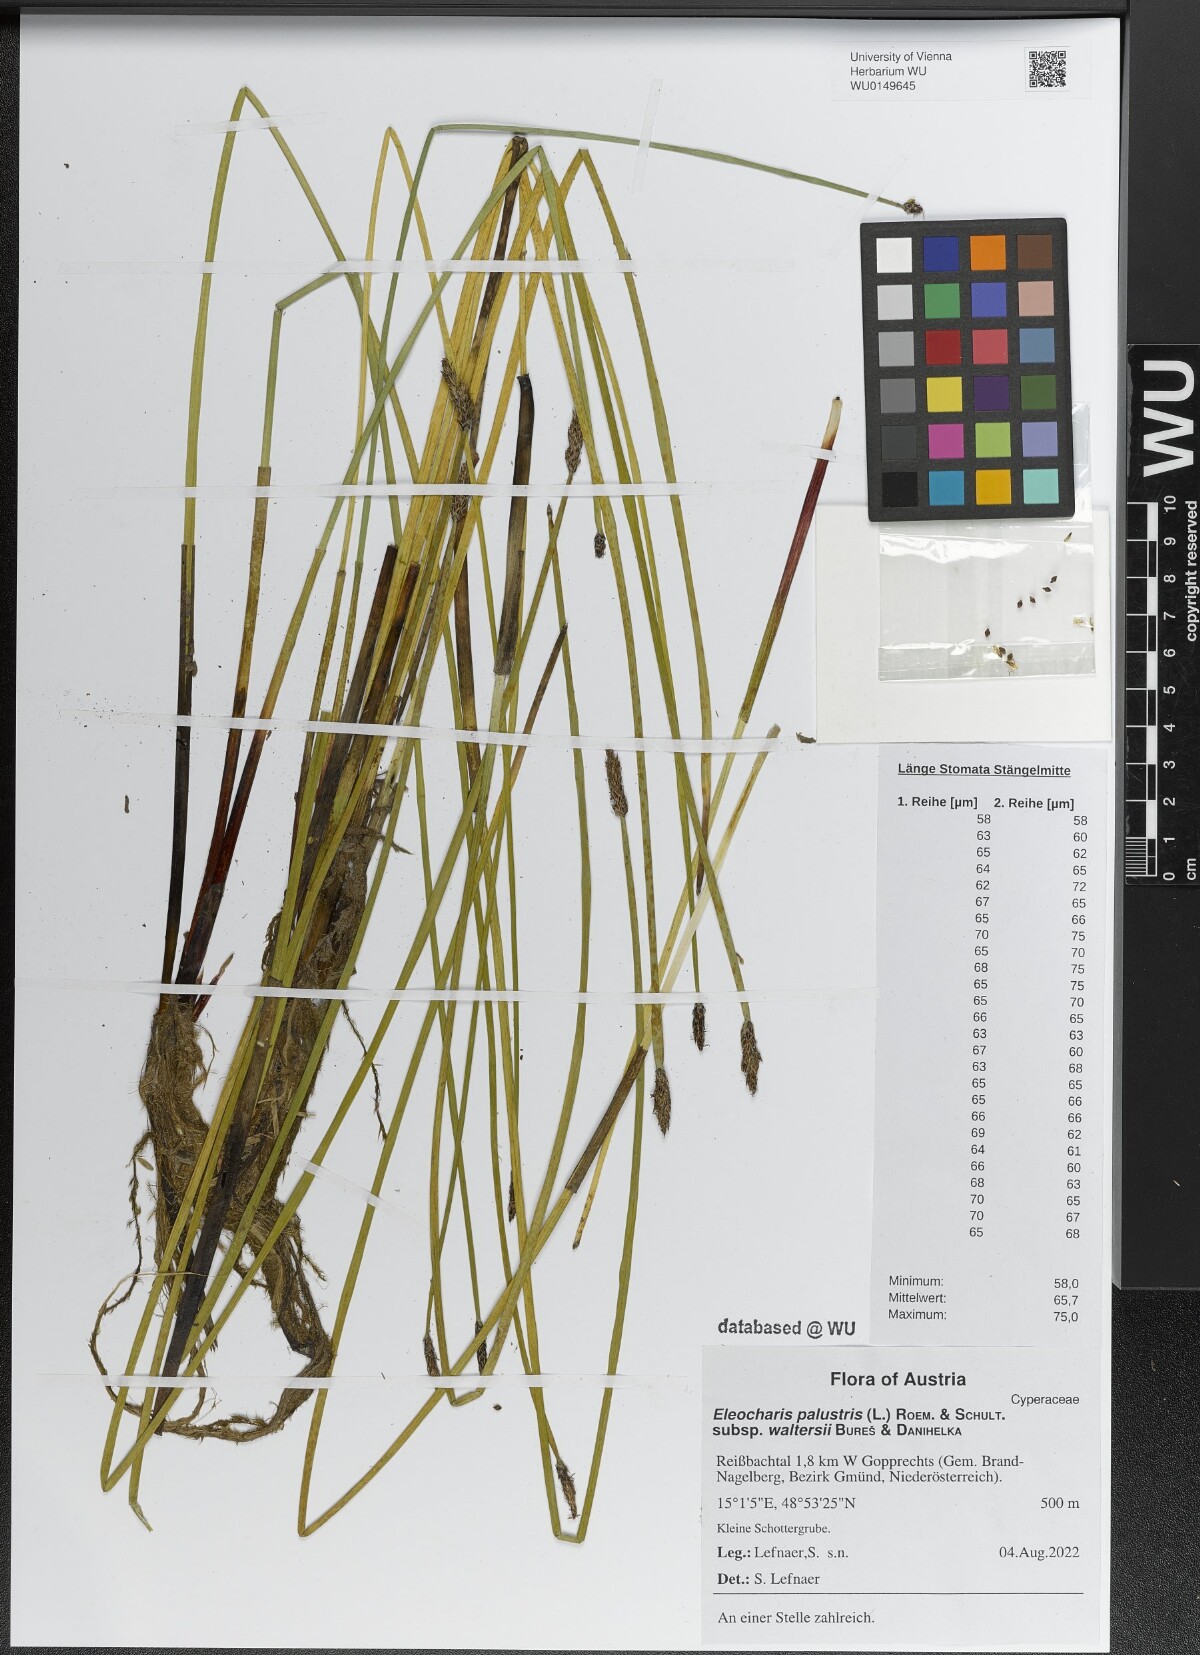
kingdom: Plantae
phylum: Tracheophyta
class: Liliopsida
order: Poales
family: Cyperaceae
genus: Eleocharis
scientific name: Eleocharis palustris
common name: Common spike-rush
